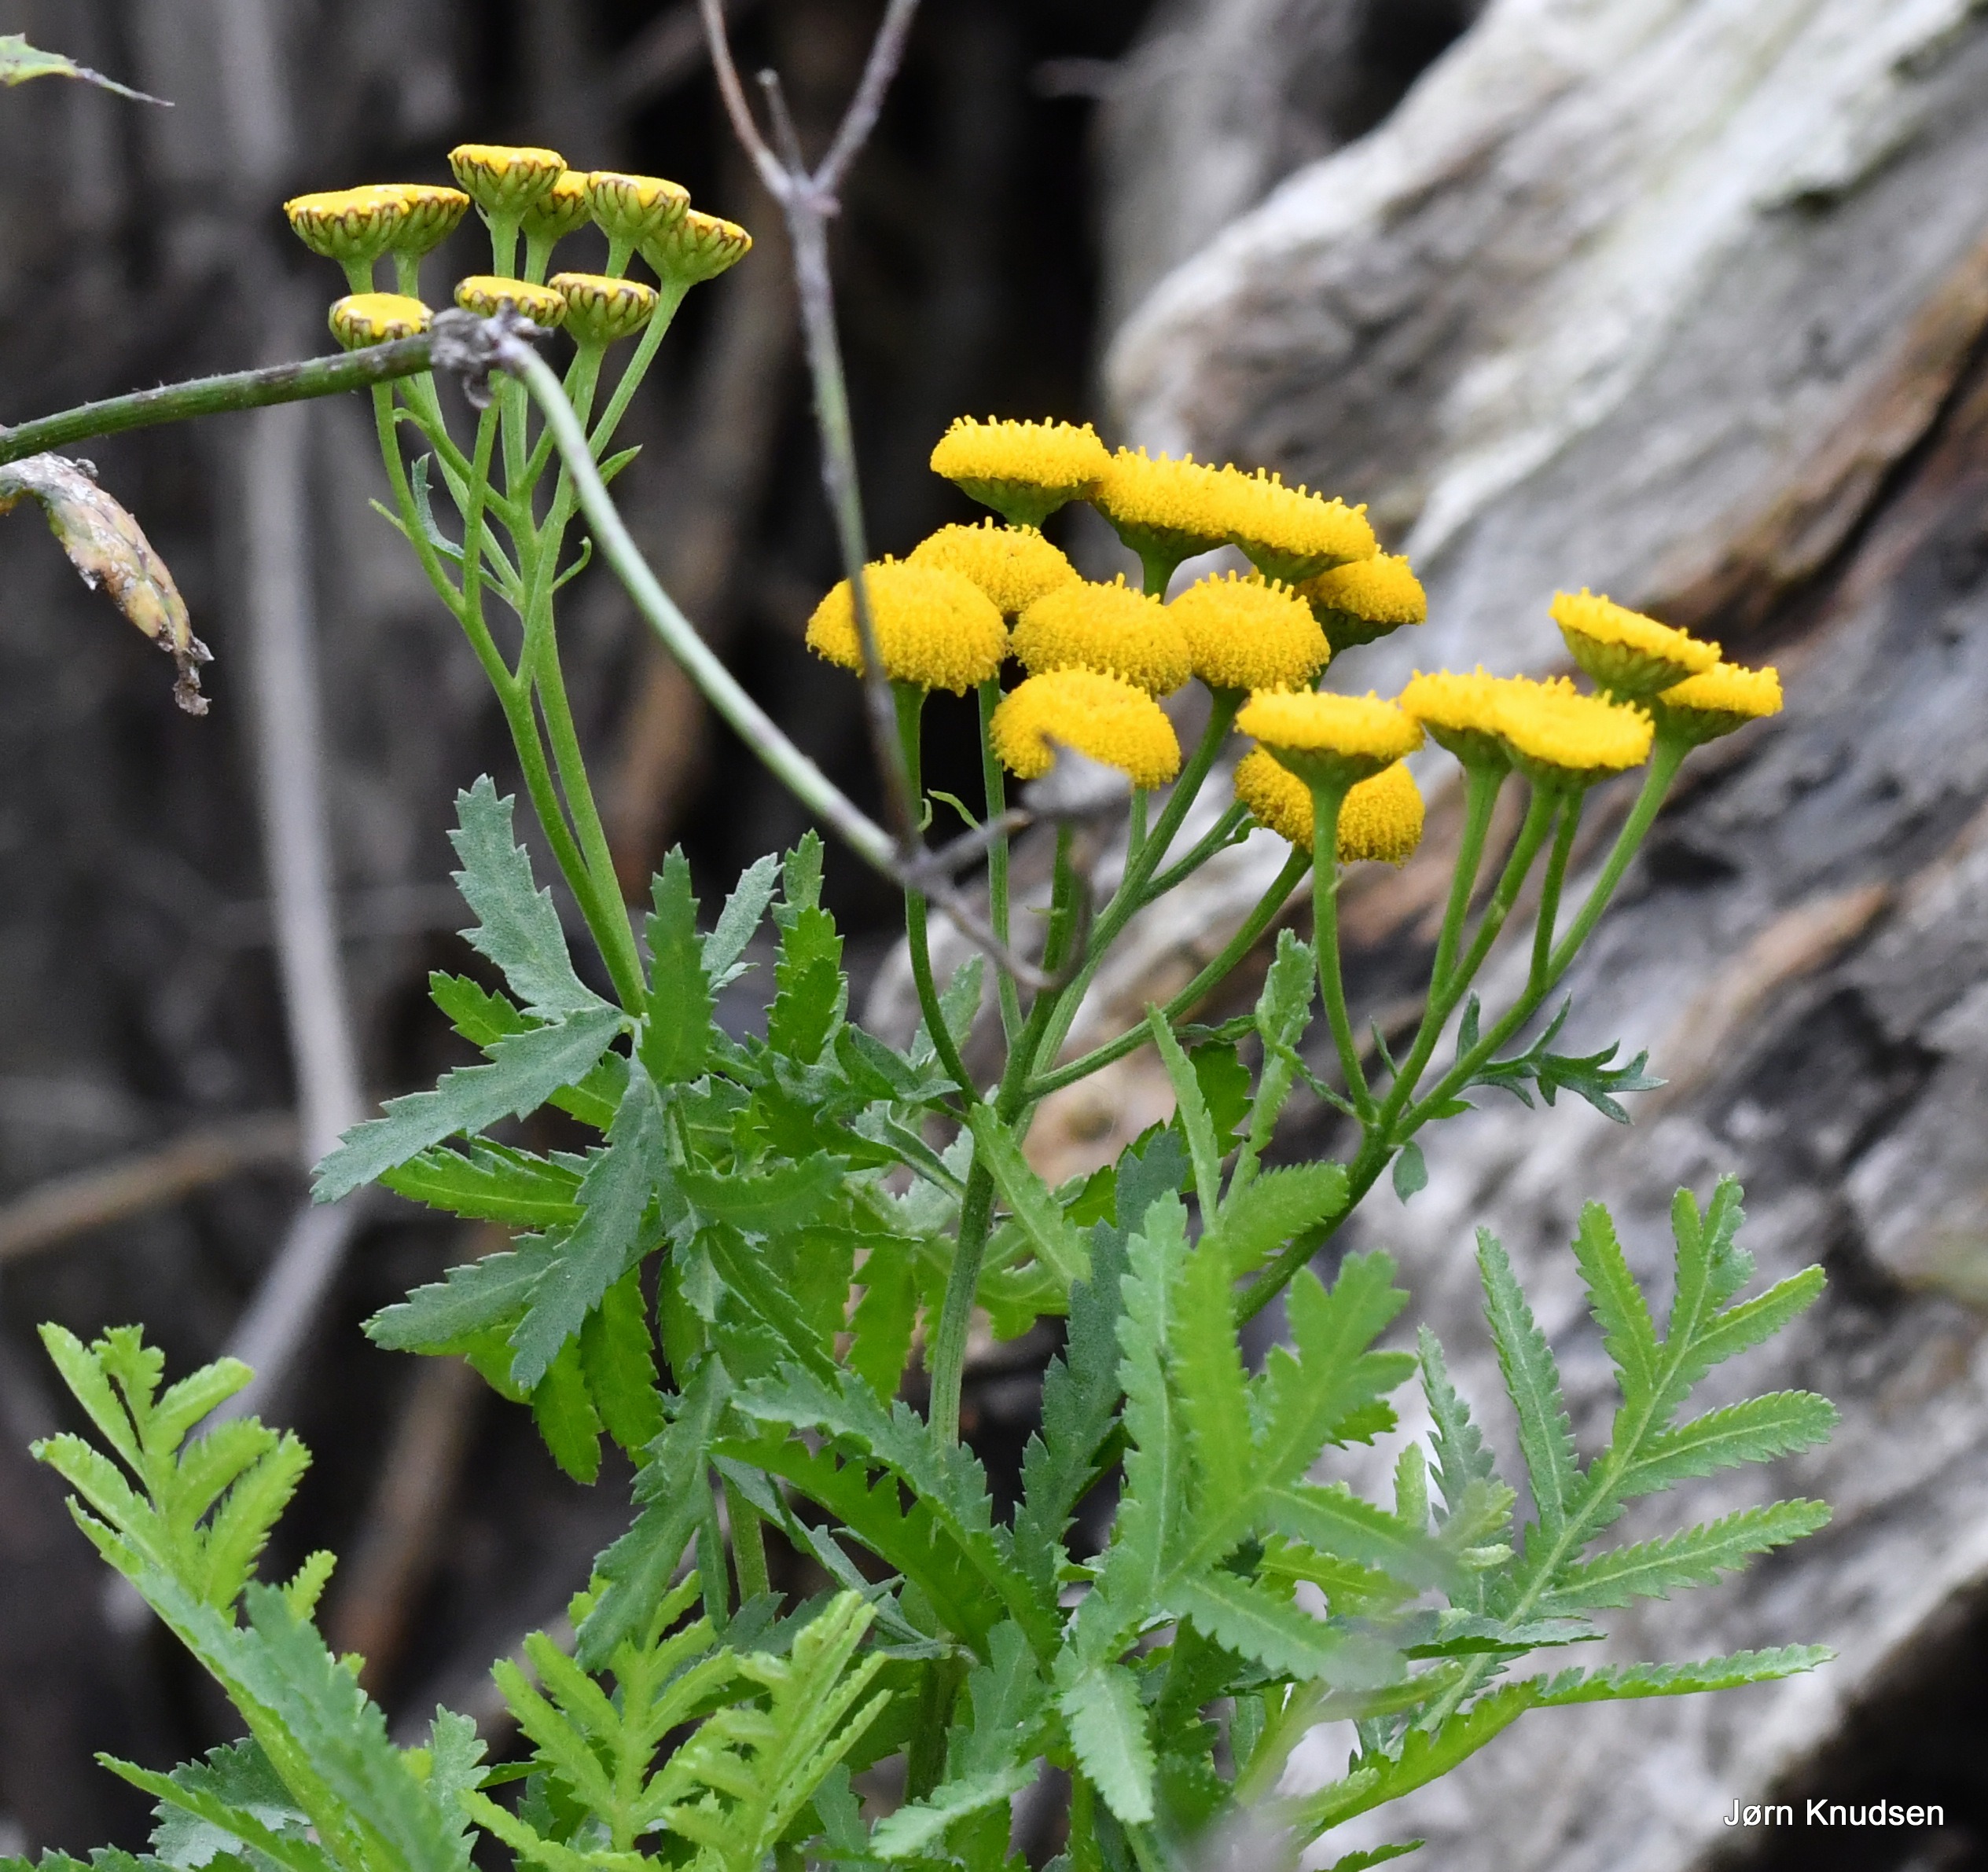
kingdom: Plantae
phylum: Tracheophyta
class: Magnoliopsida
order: Asterales
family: Asteraceae
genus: Tanacetum
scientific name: Tanacetum vulgare
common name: Rejnfan
